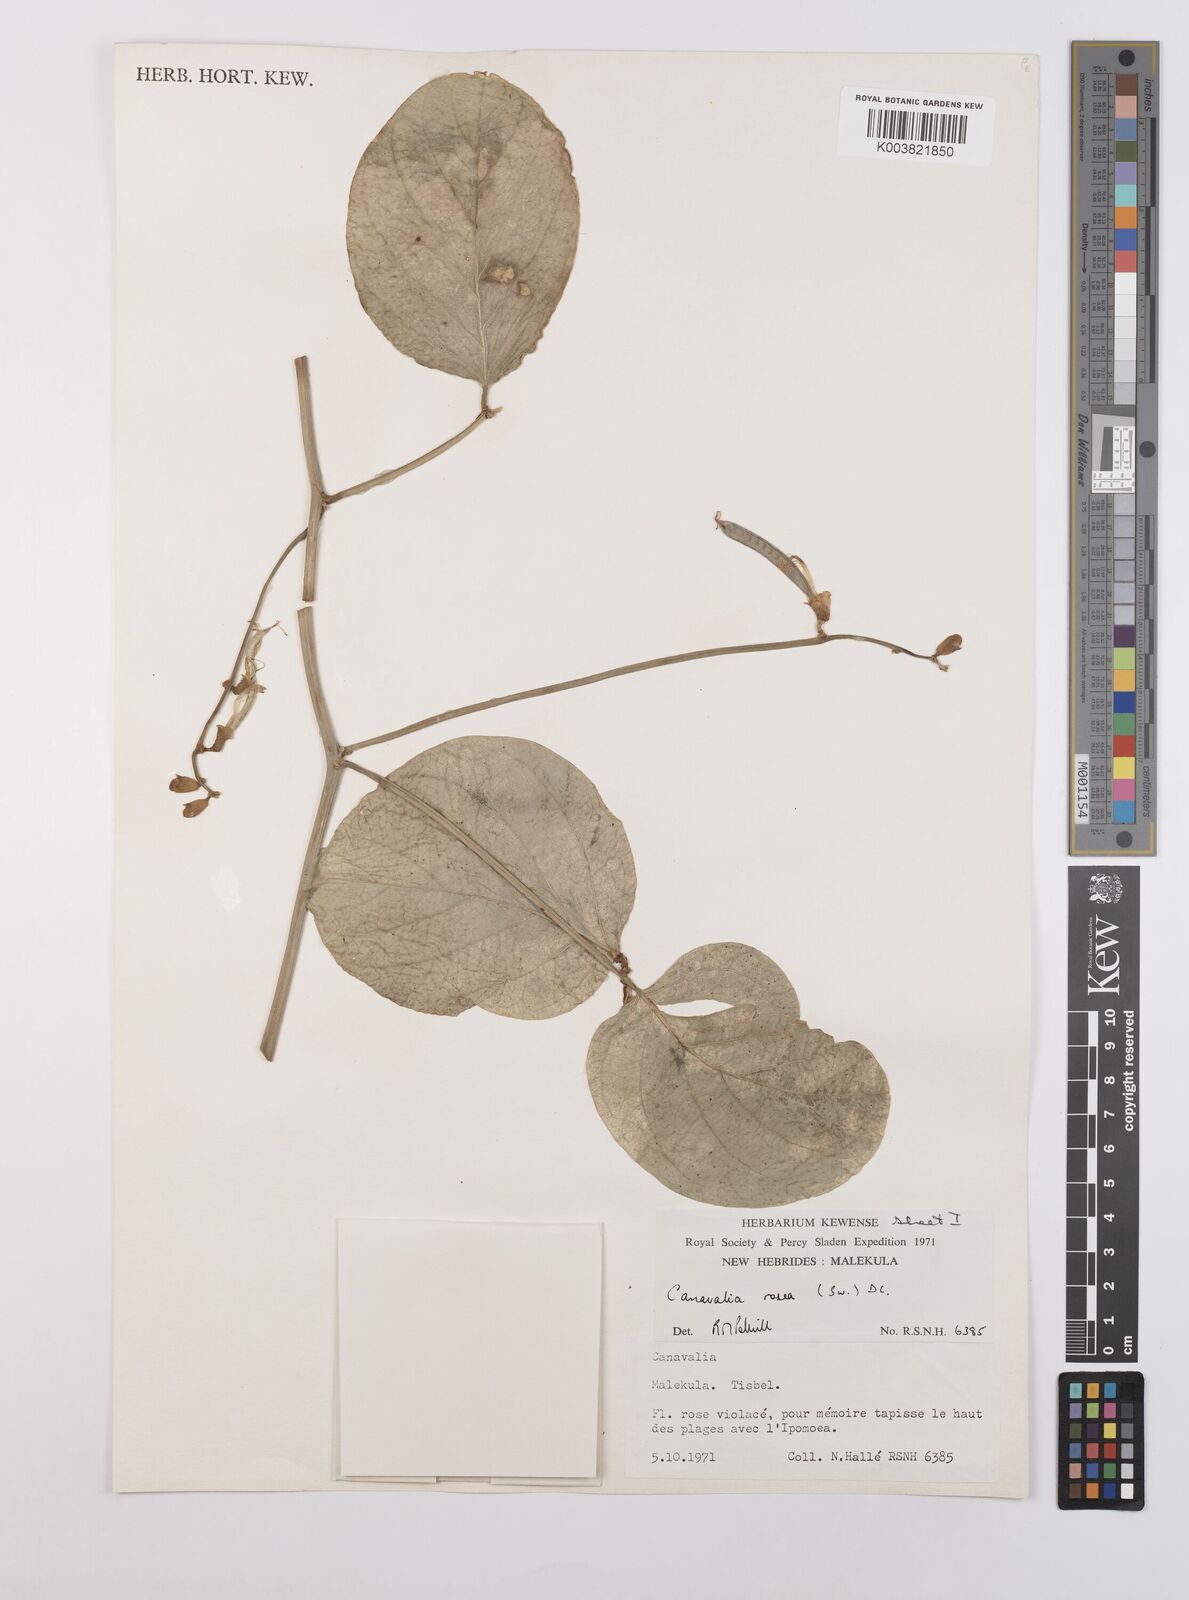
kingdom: Plantae
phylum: Tracheophyta
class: Magnoliopsida
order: Fabales
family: Fabaceae
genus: Canavalia
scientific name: Canavalia rosea
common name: Beach-bean
